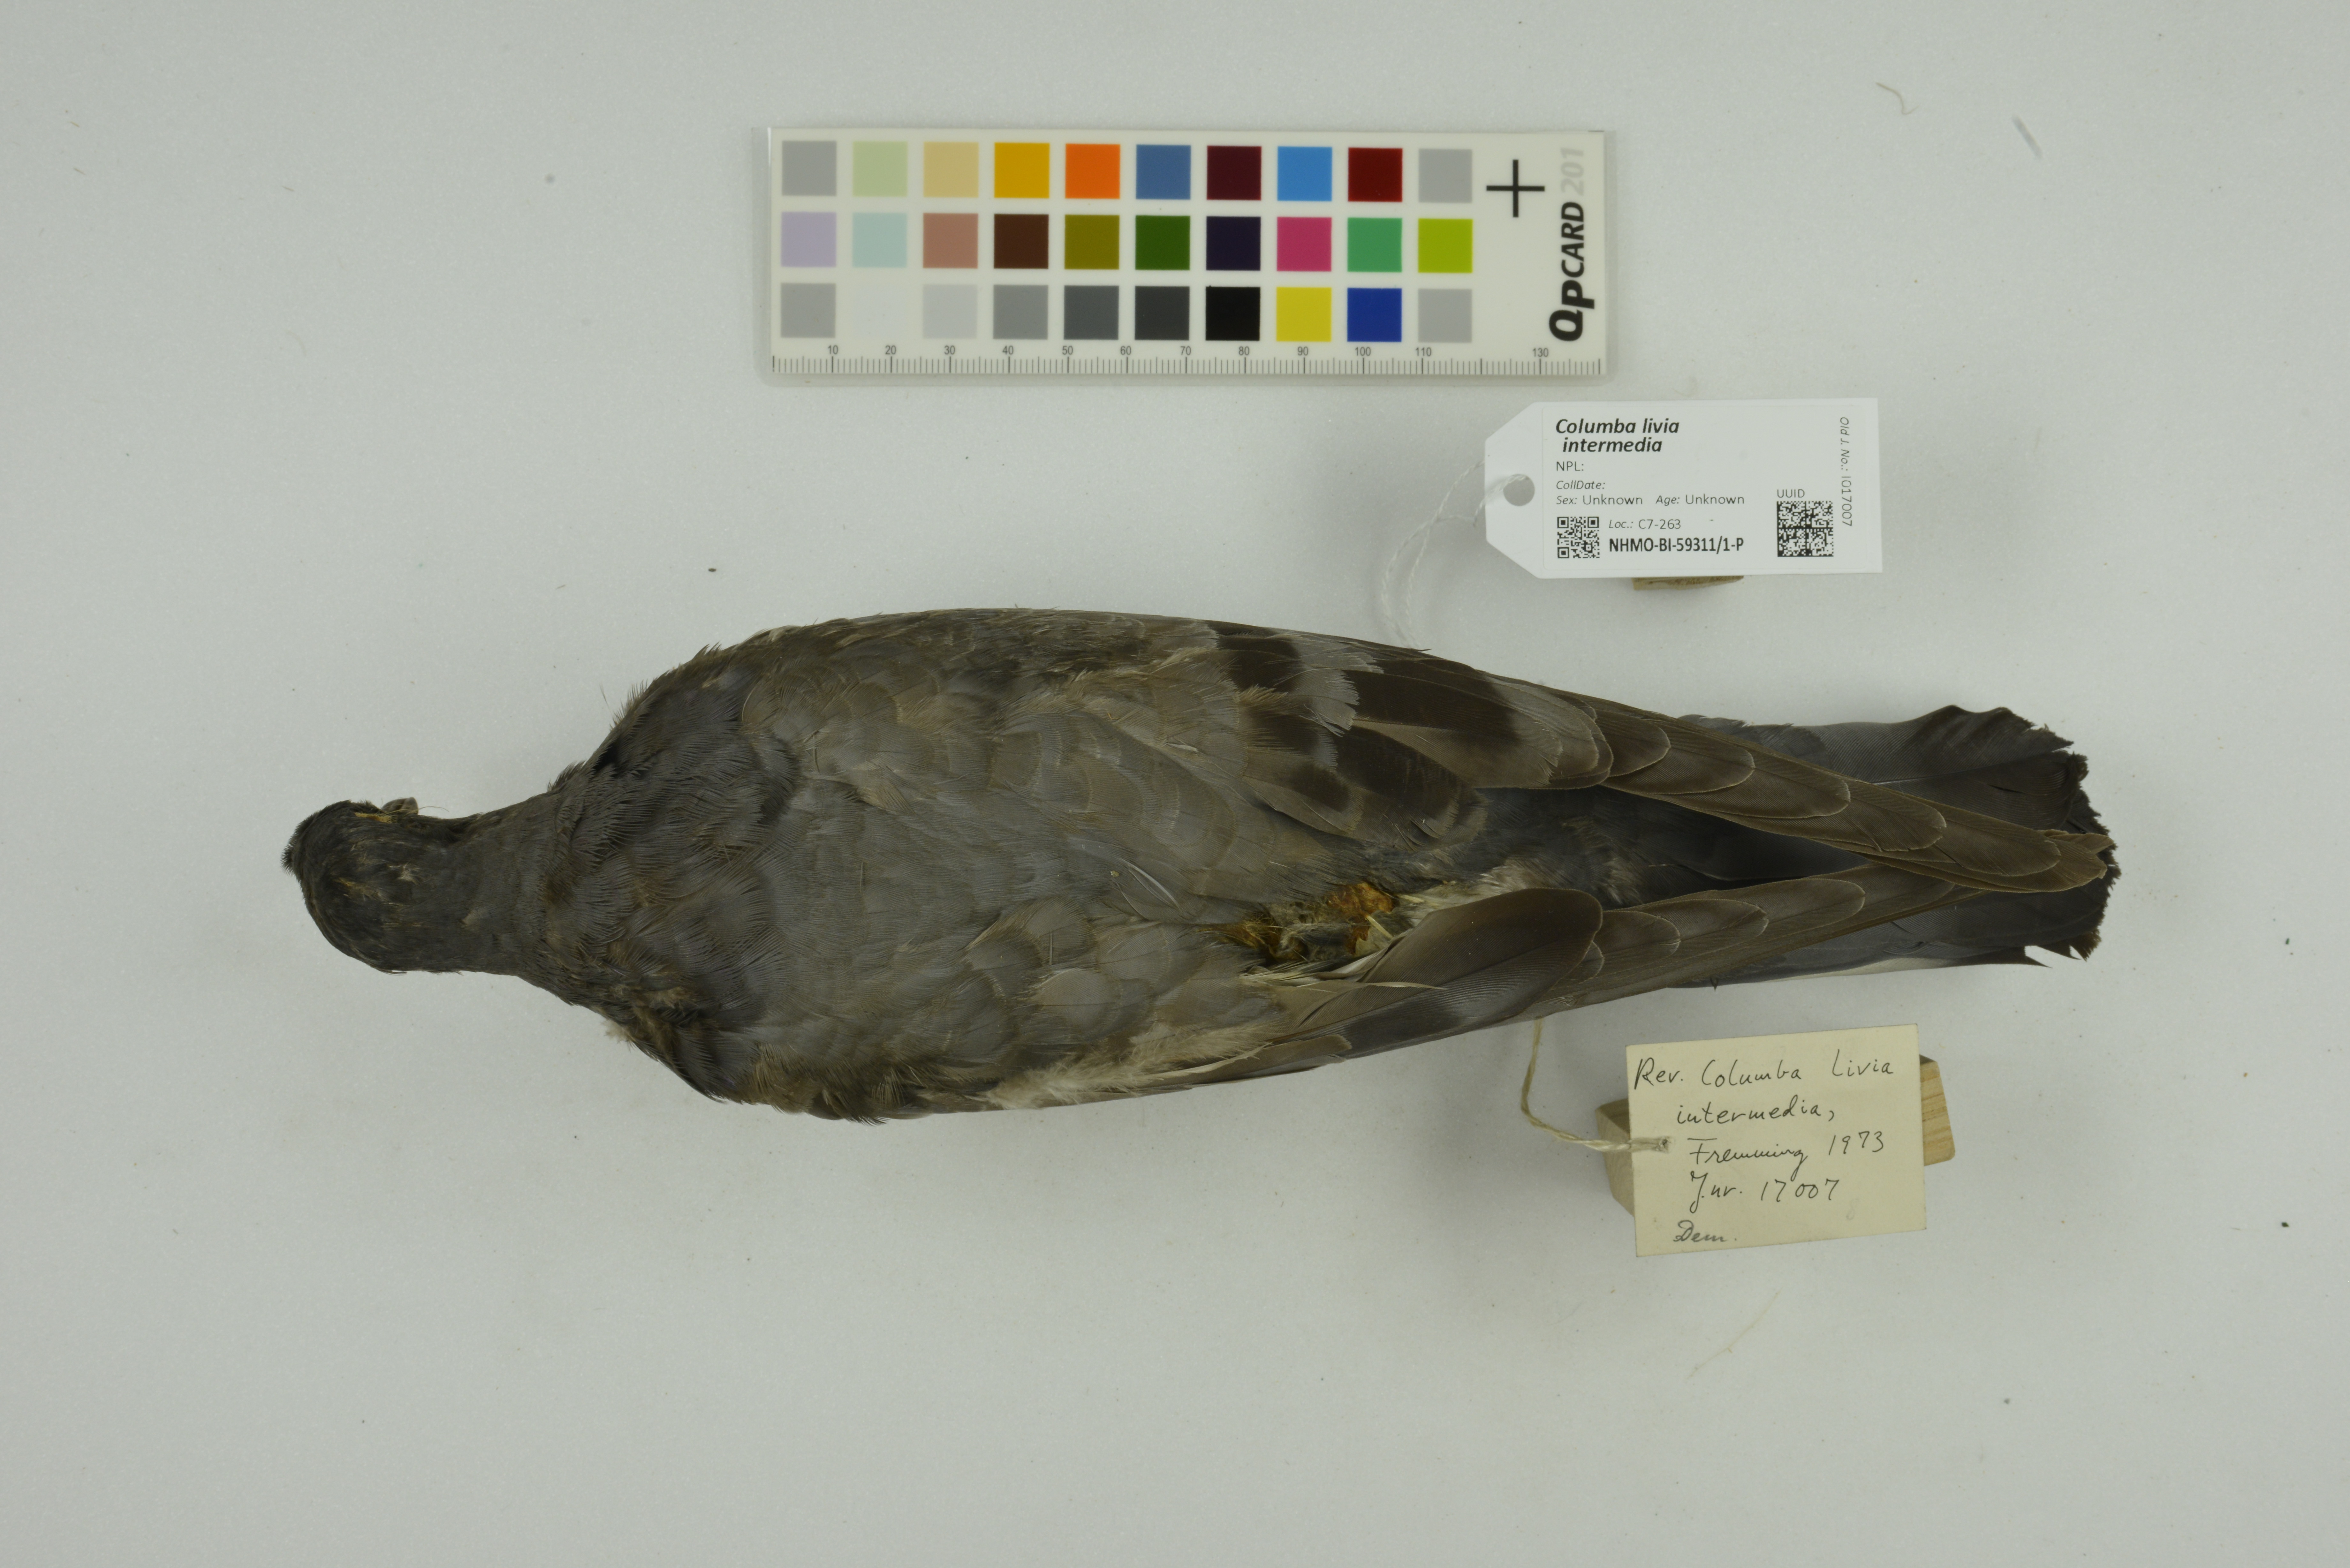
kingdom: Animalia
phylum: Chordata
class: Aves
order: Columbiformes
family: Columbidae
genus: Columba
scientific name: Columba livia
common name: Rock pigeon
